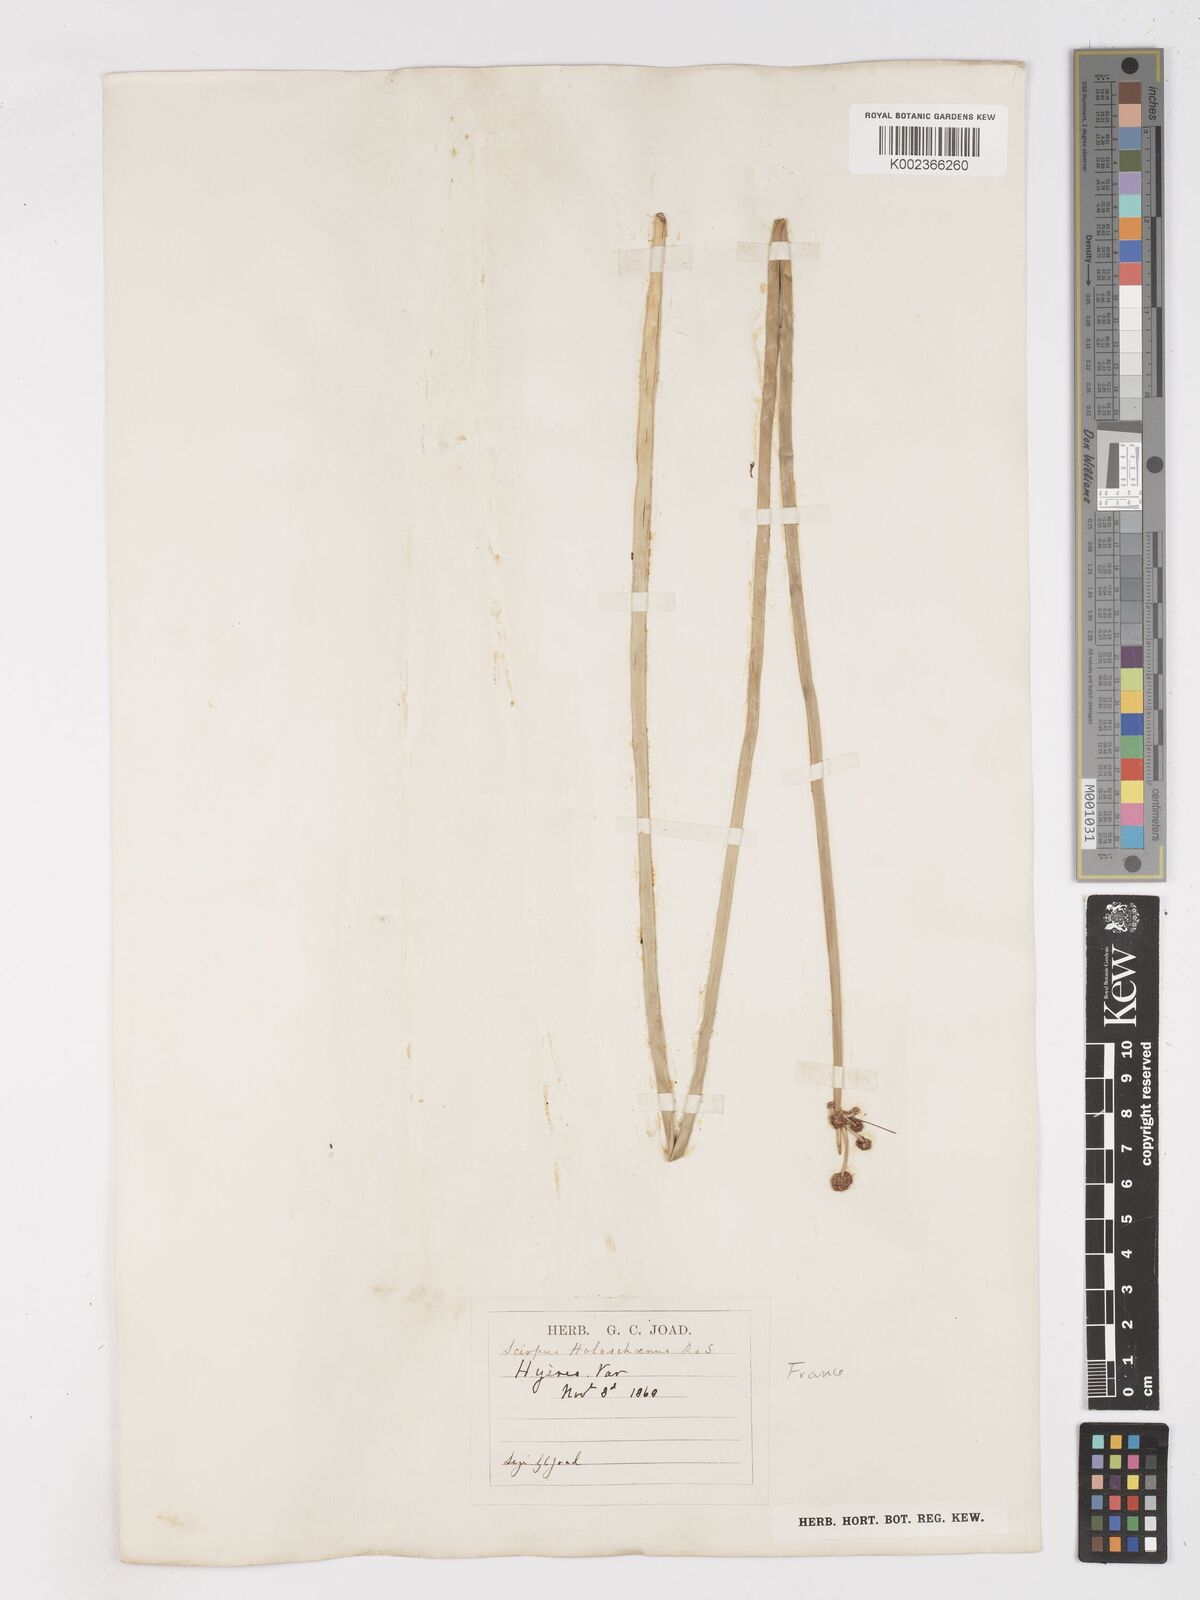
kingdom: Plantae
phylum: Tracheophyta
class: Liliopsida
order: Poales
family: Cyperaceae
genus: Scirpoides
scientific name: Scirpoides holoschoenus
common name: Round-headed club-rush
